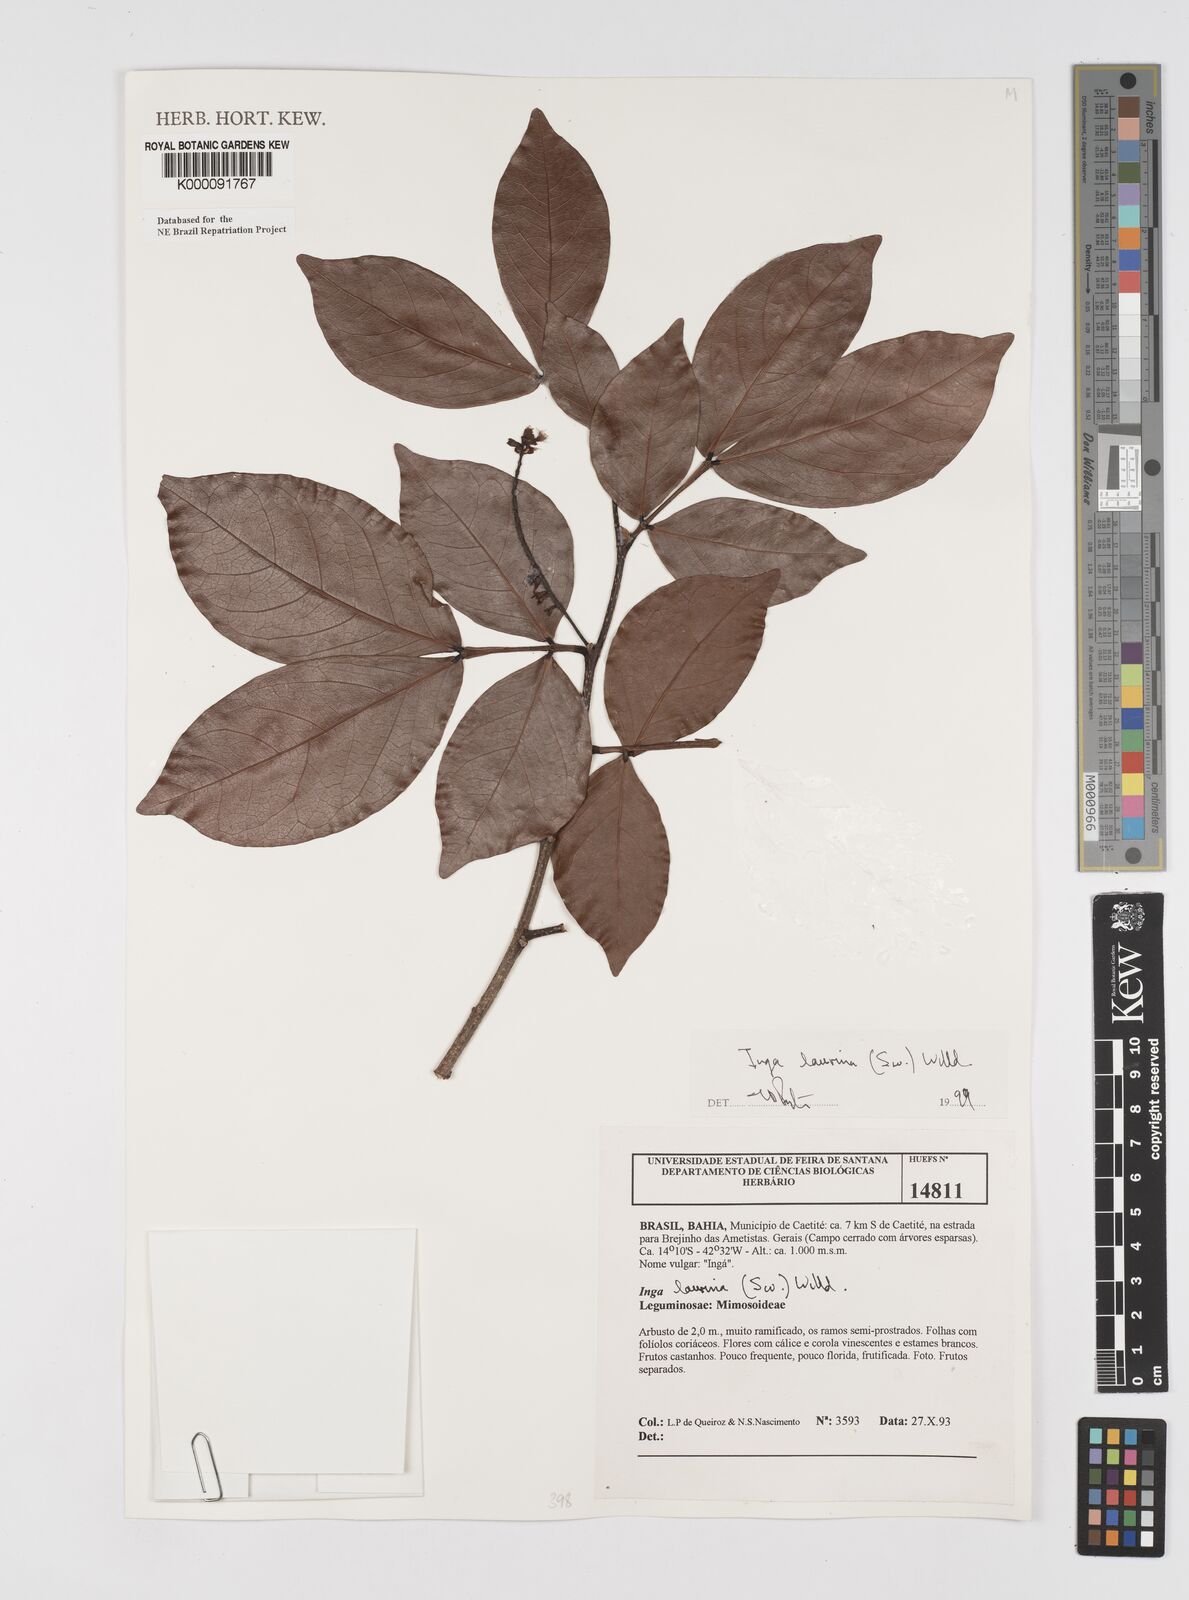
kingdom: Plantae
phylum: Tracheophyta
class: Magnoliopsida
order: Fabales
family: Fabaceae
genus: Inga
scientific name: Inga laurina
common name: Red wood
